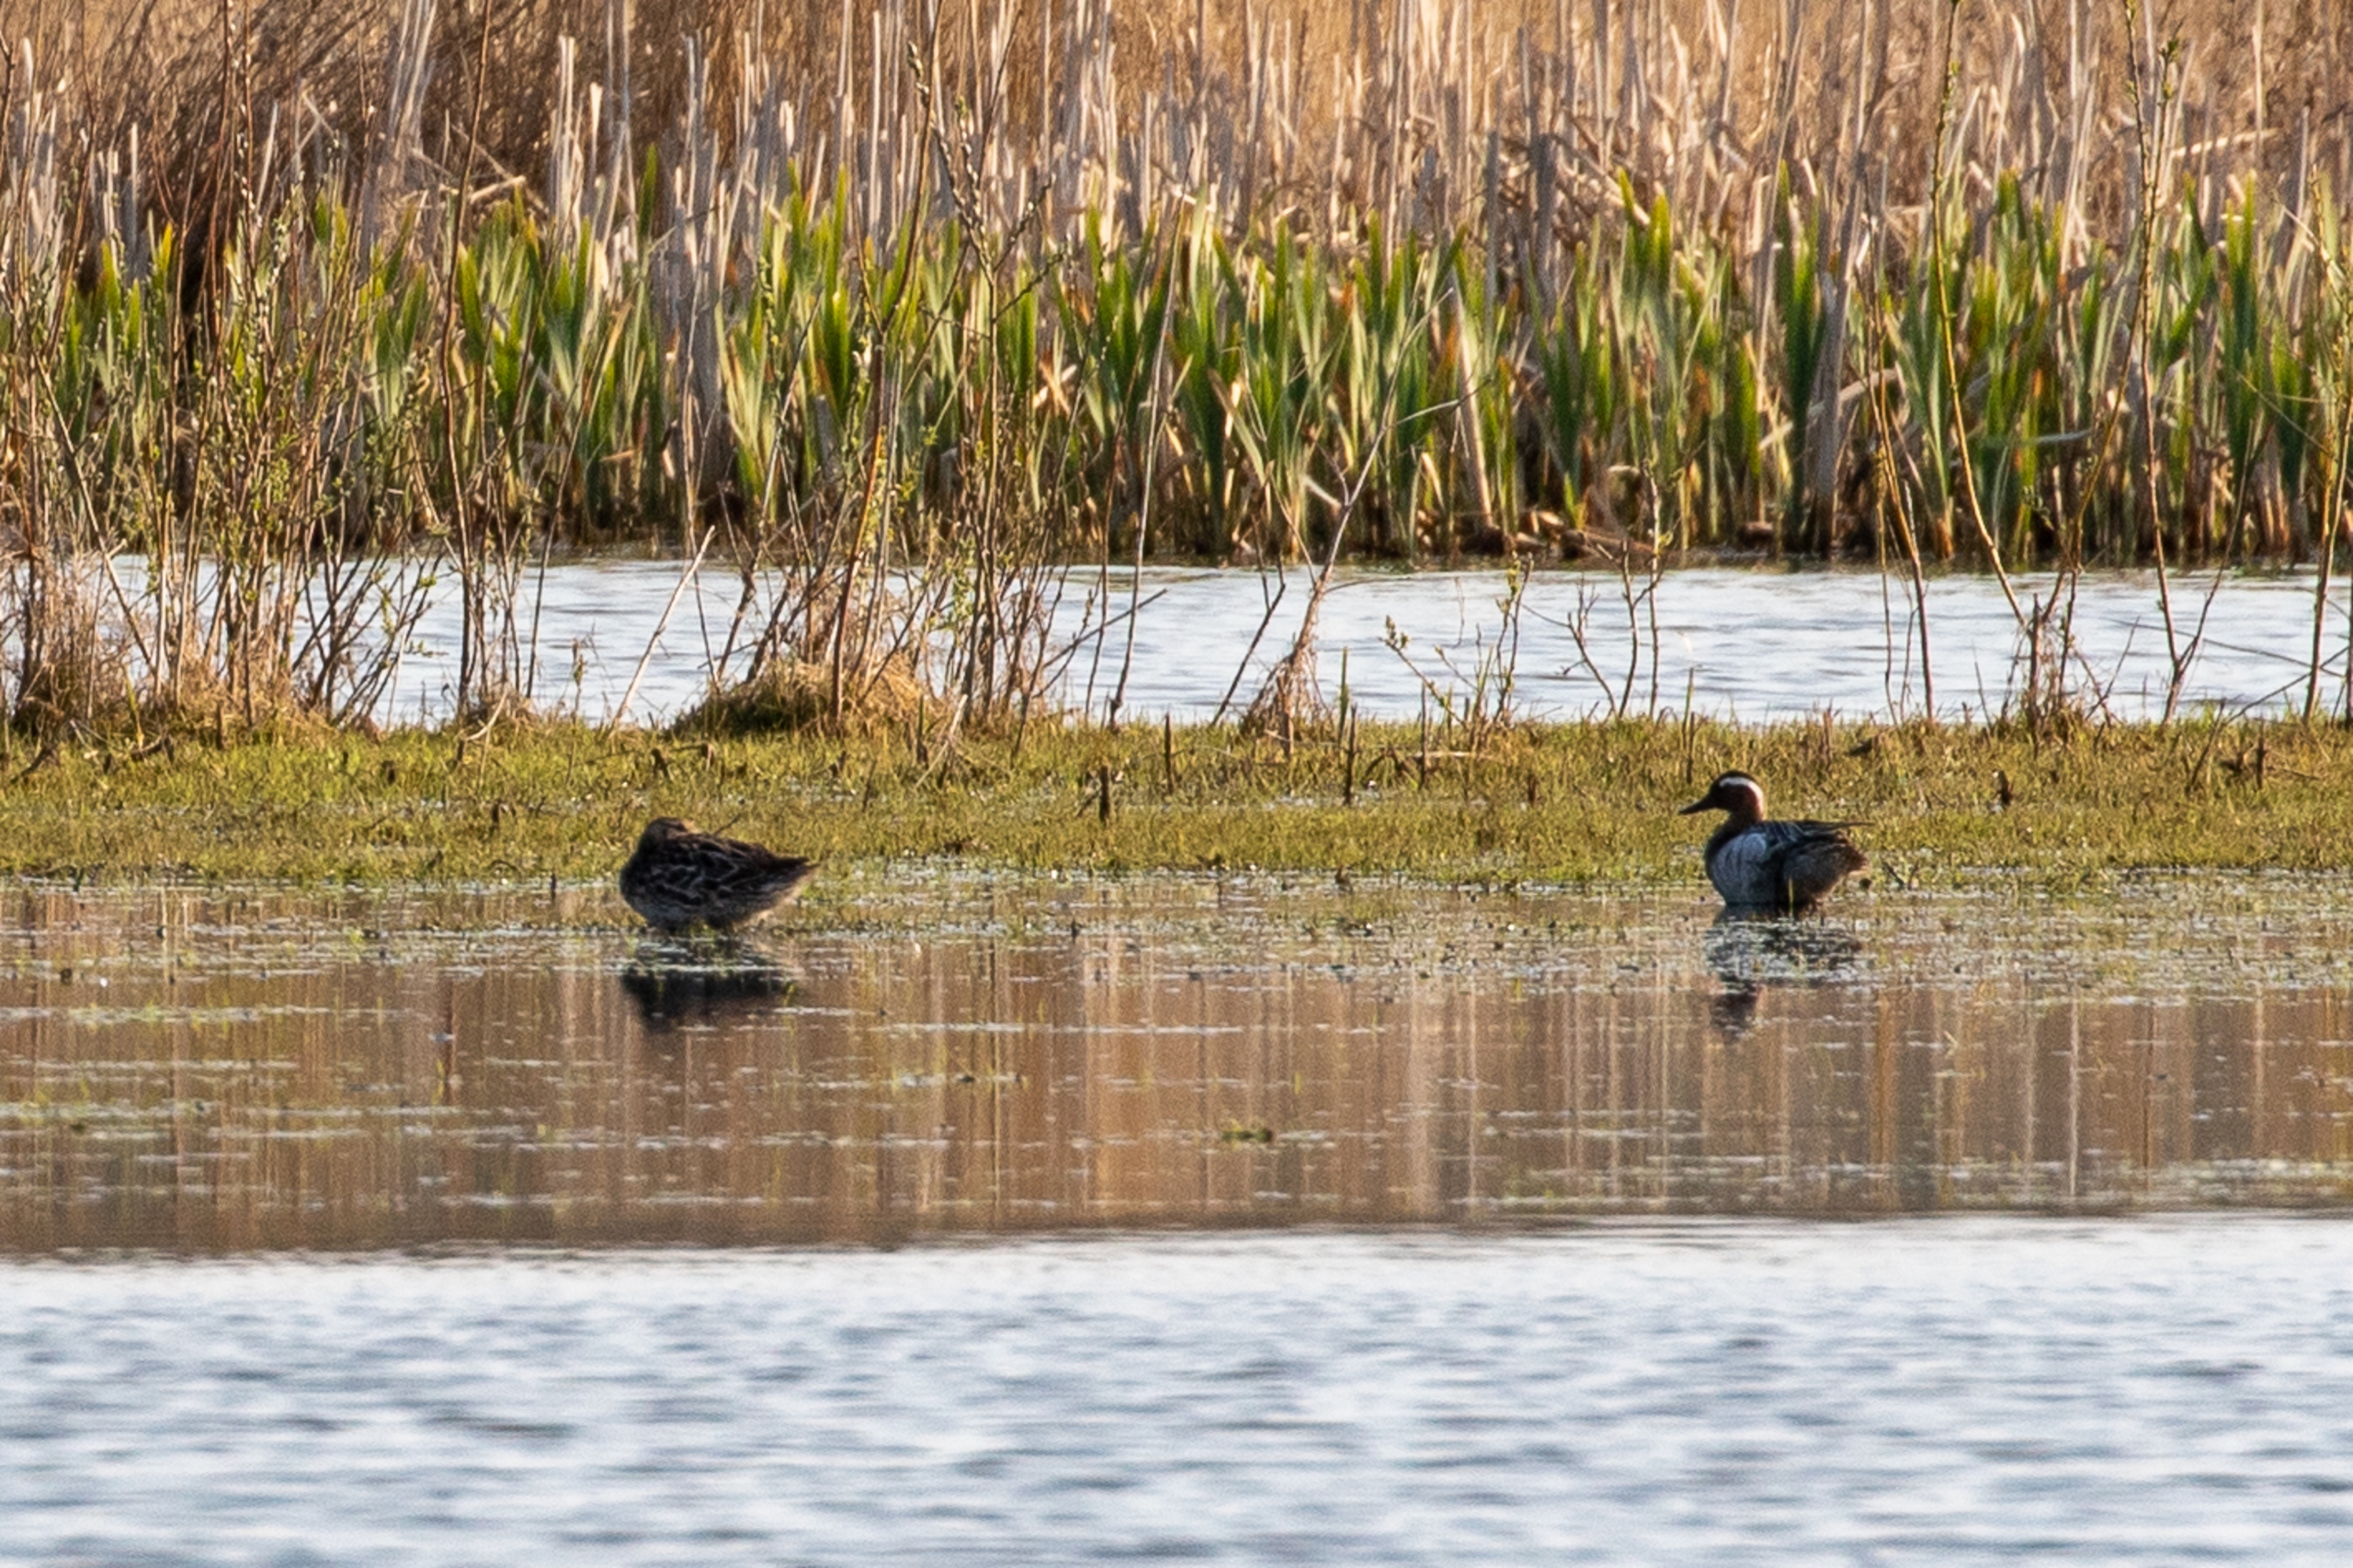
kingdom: Animalia
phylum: Chordata
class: Aves
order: Anseriformes
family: Anatidae
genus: Spatula
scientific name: Spatula querquedula
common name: Atlingand
